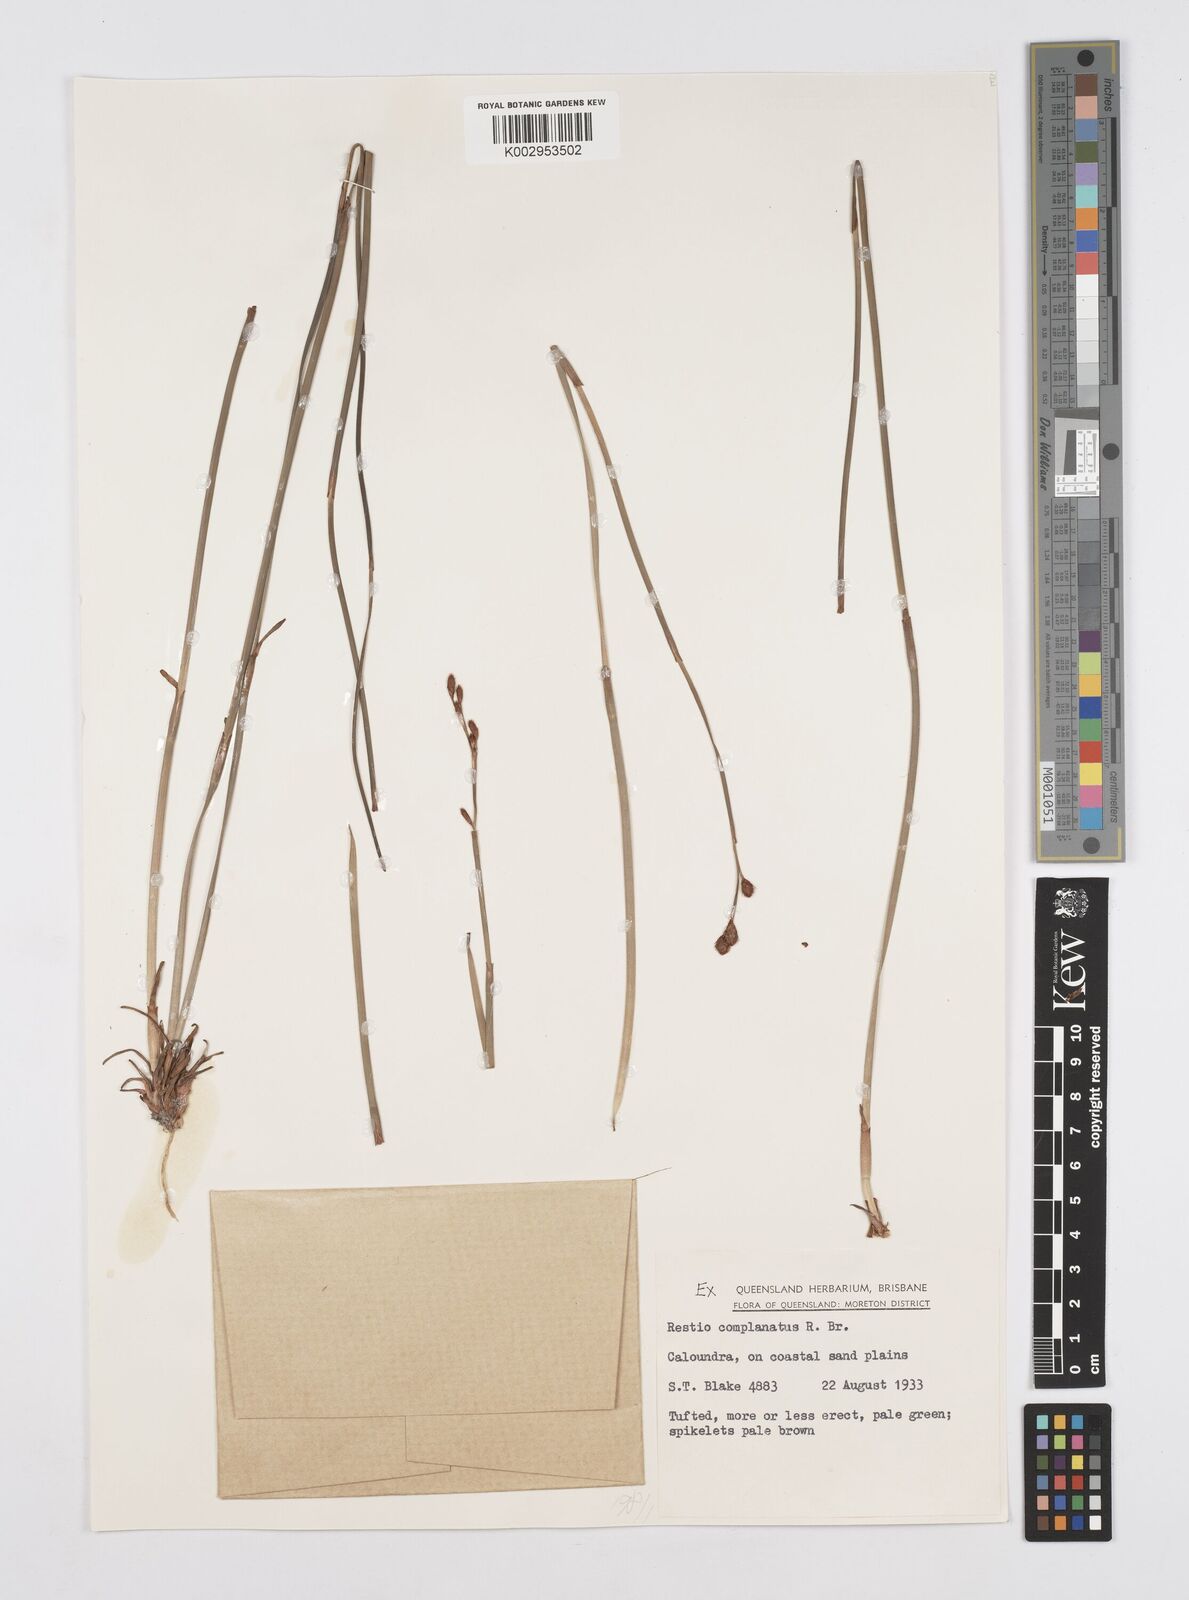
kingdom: Plantae
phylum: Tracheophyta
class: Liliopsida
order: Poales
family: Restionaceae
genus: Eurychorda
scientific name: Eurychorda complanata
